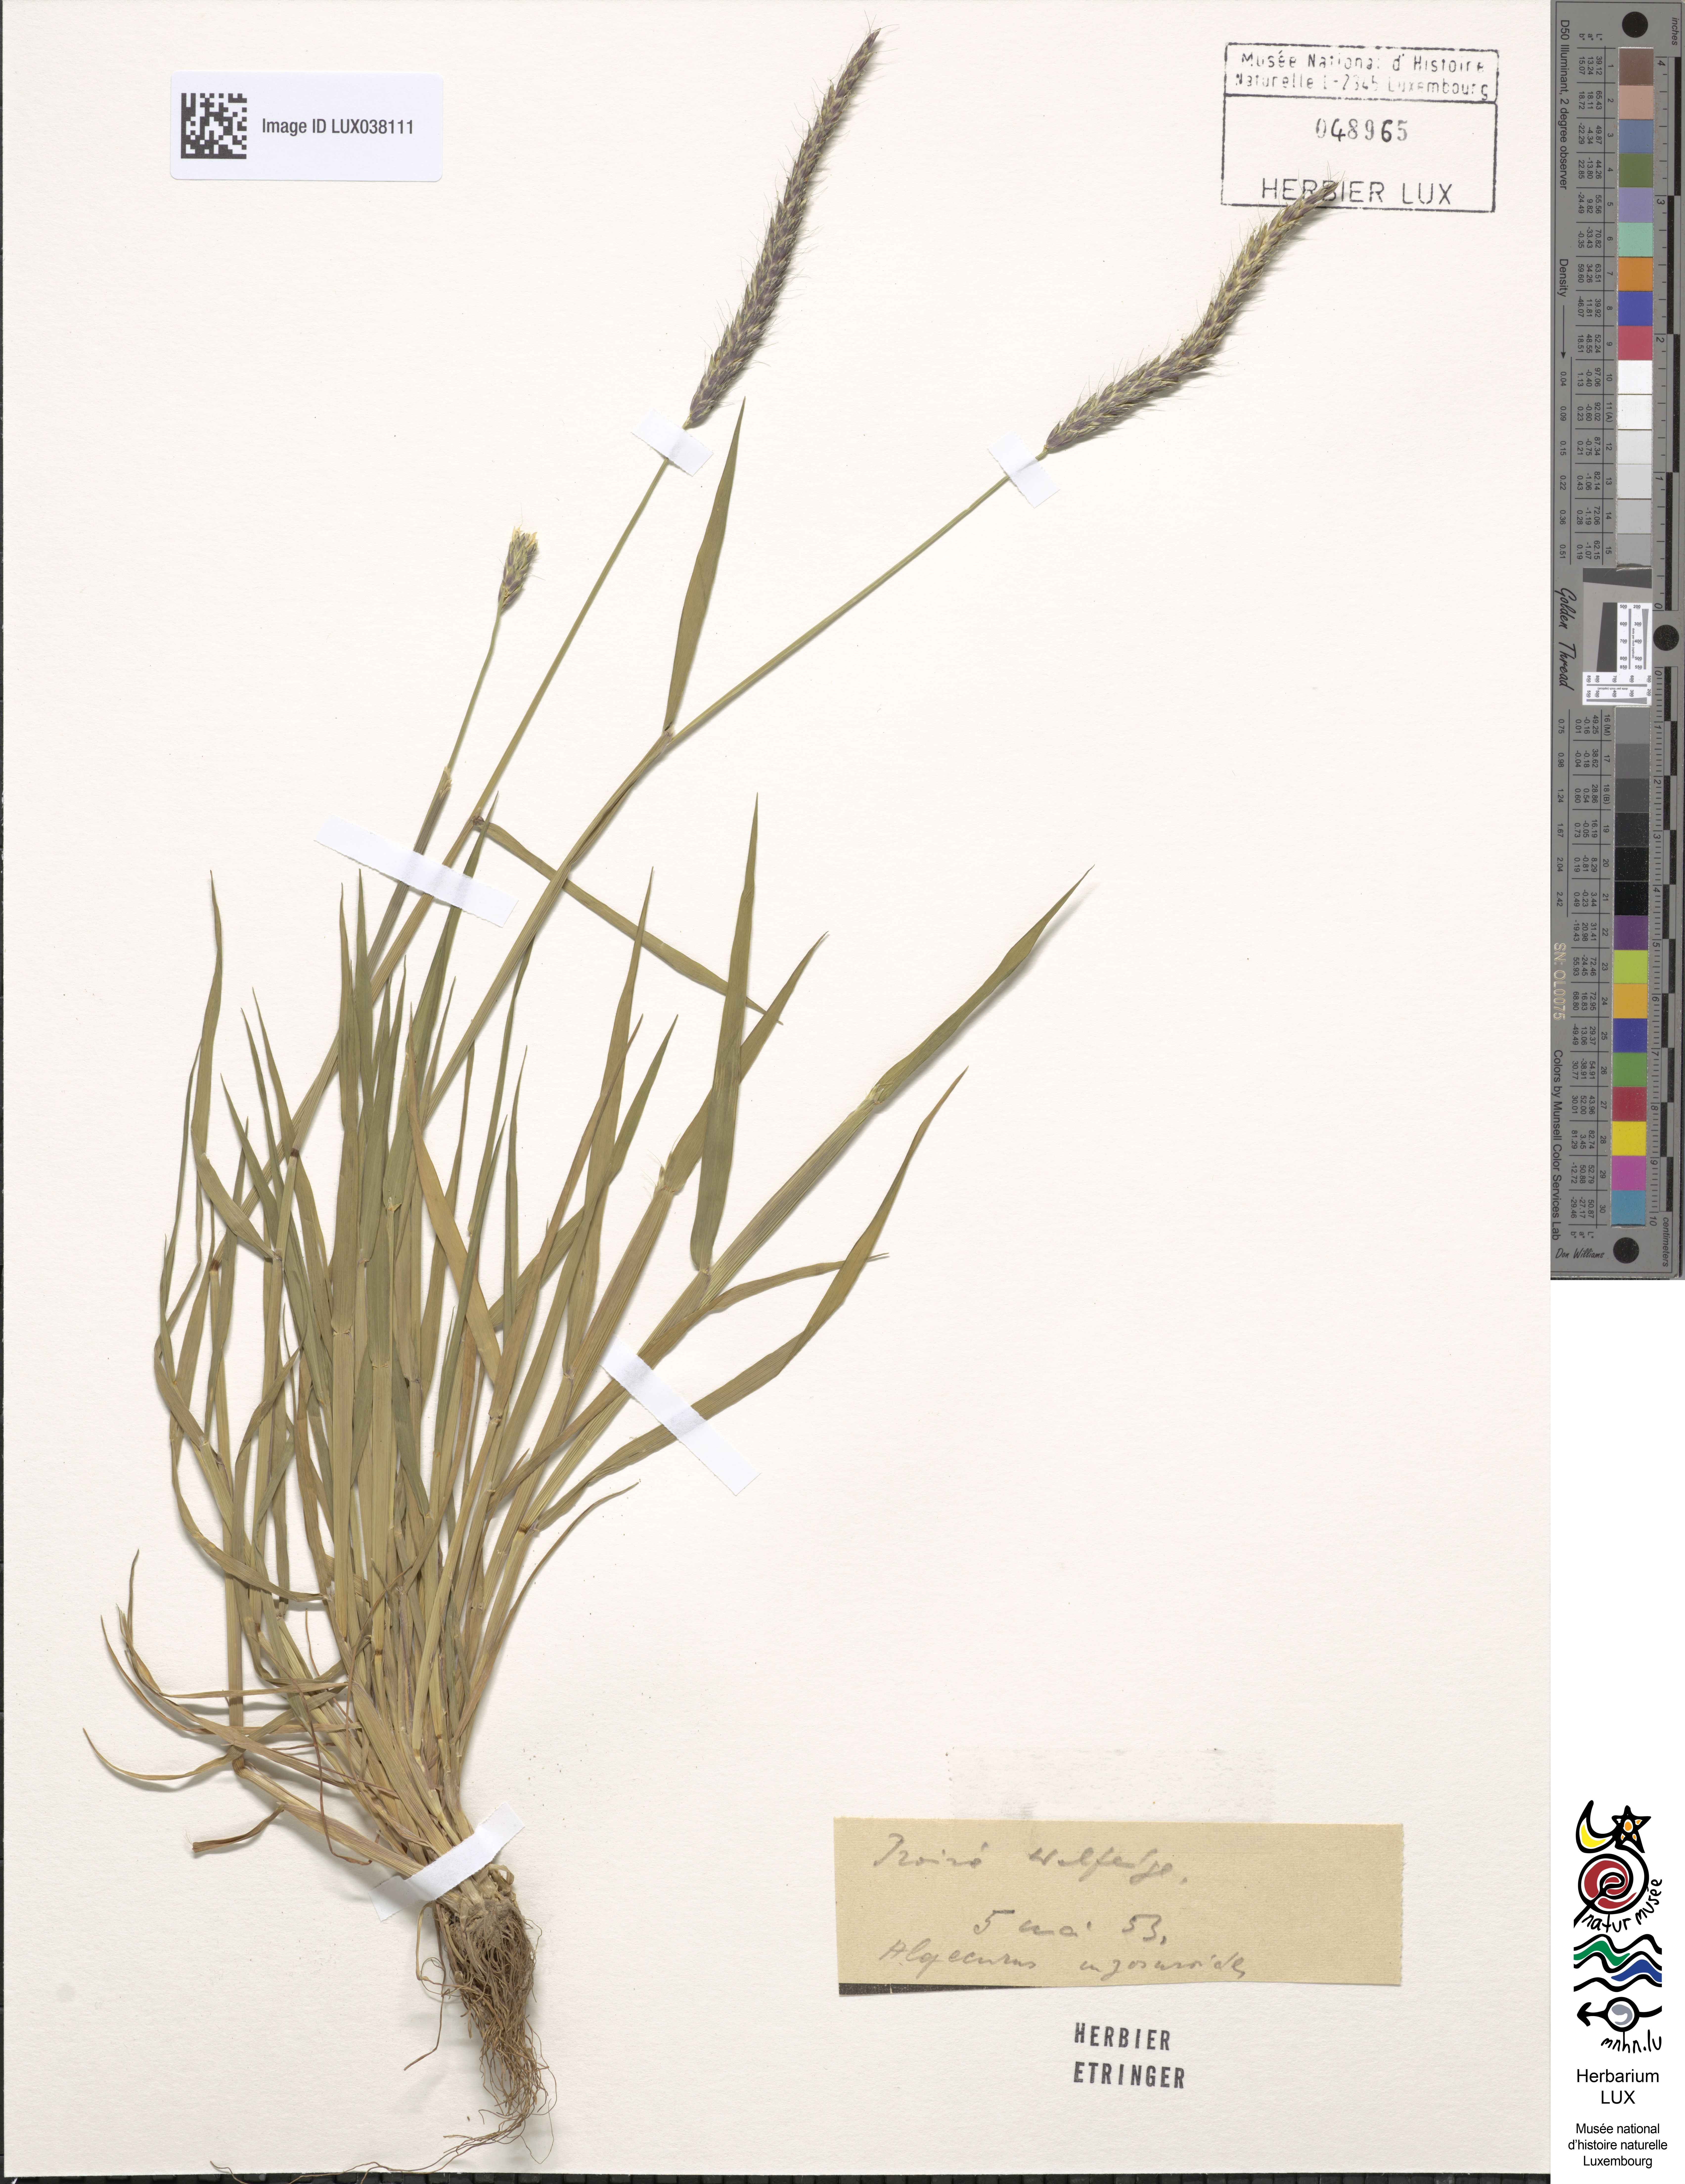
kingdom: Plantae
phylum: Tracheophyta
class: Liliopsida
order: Poales
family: Poaceae
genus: Alopecurus
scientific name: Alopecurus myosuroides
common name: Black-grass
